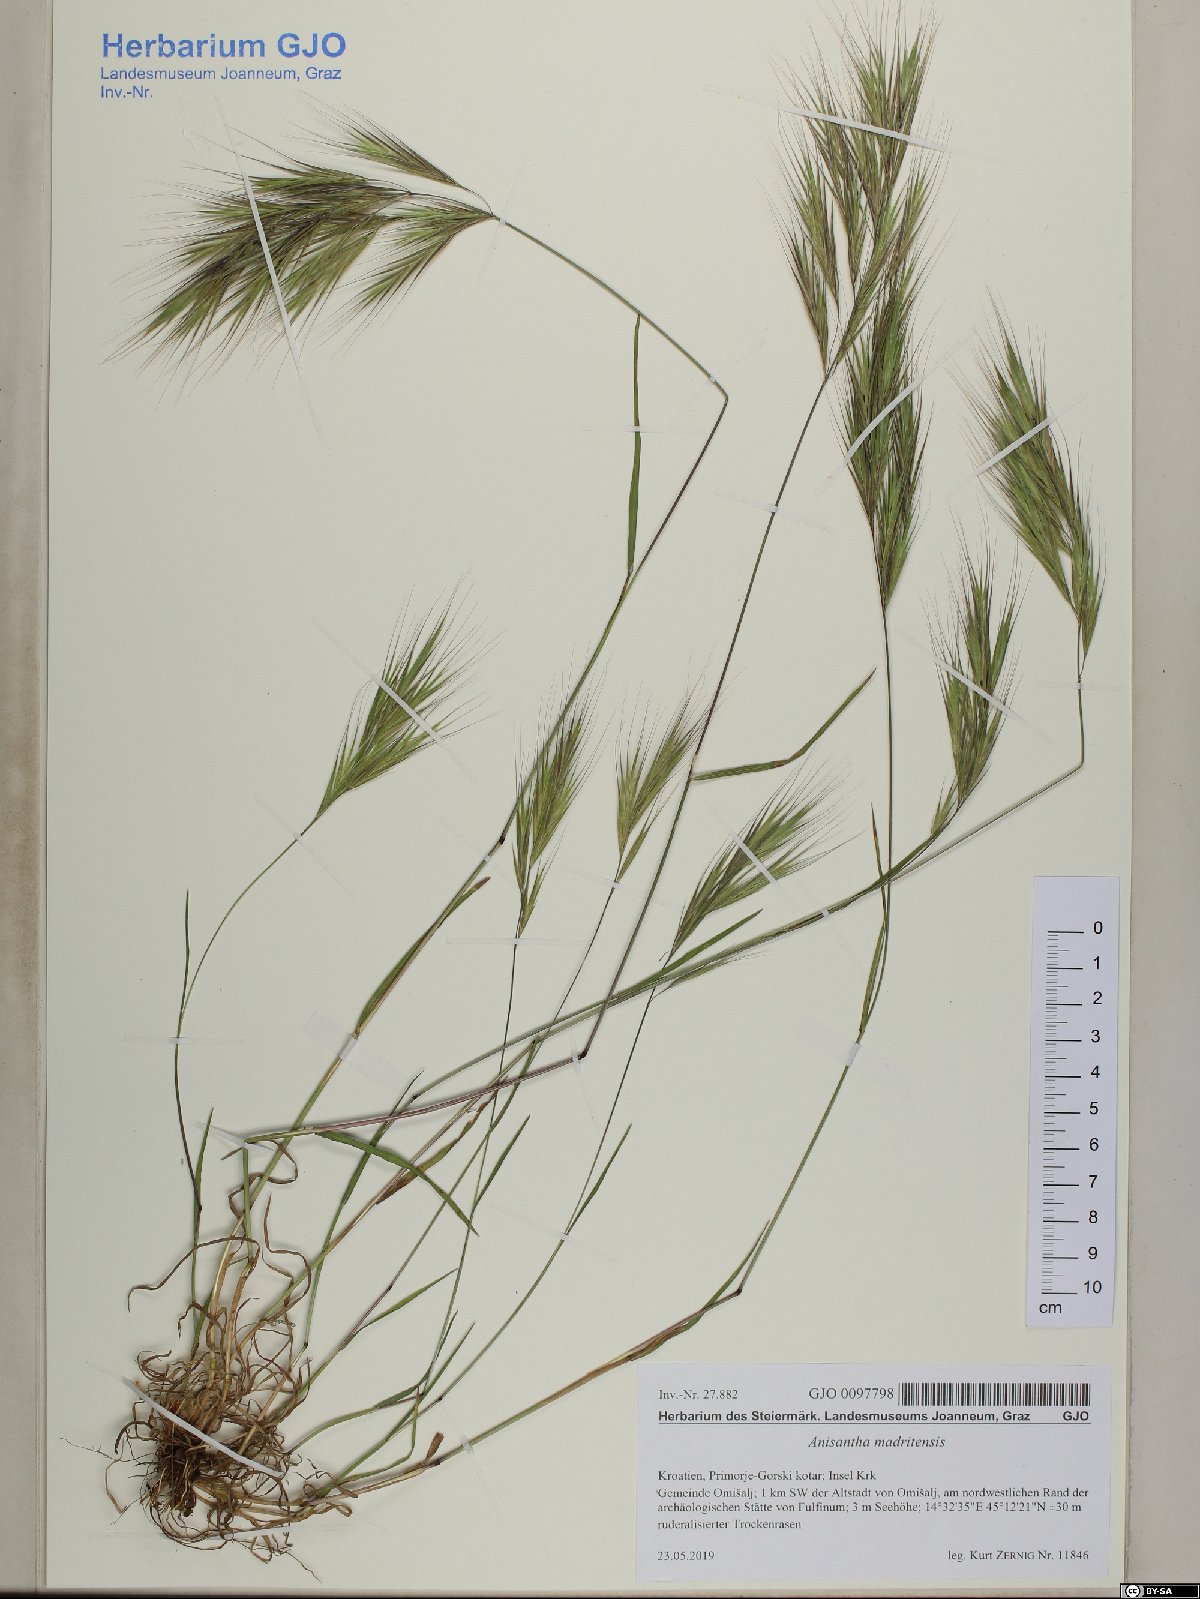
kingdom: Plantae
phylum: Tracheophyta
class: Liliopsida
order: Poales
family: Poaceae
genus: Bromus
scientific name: Bromus madritensis
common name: Compact brome
